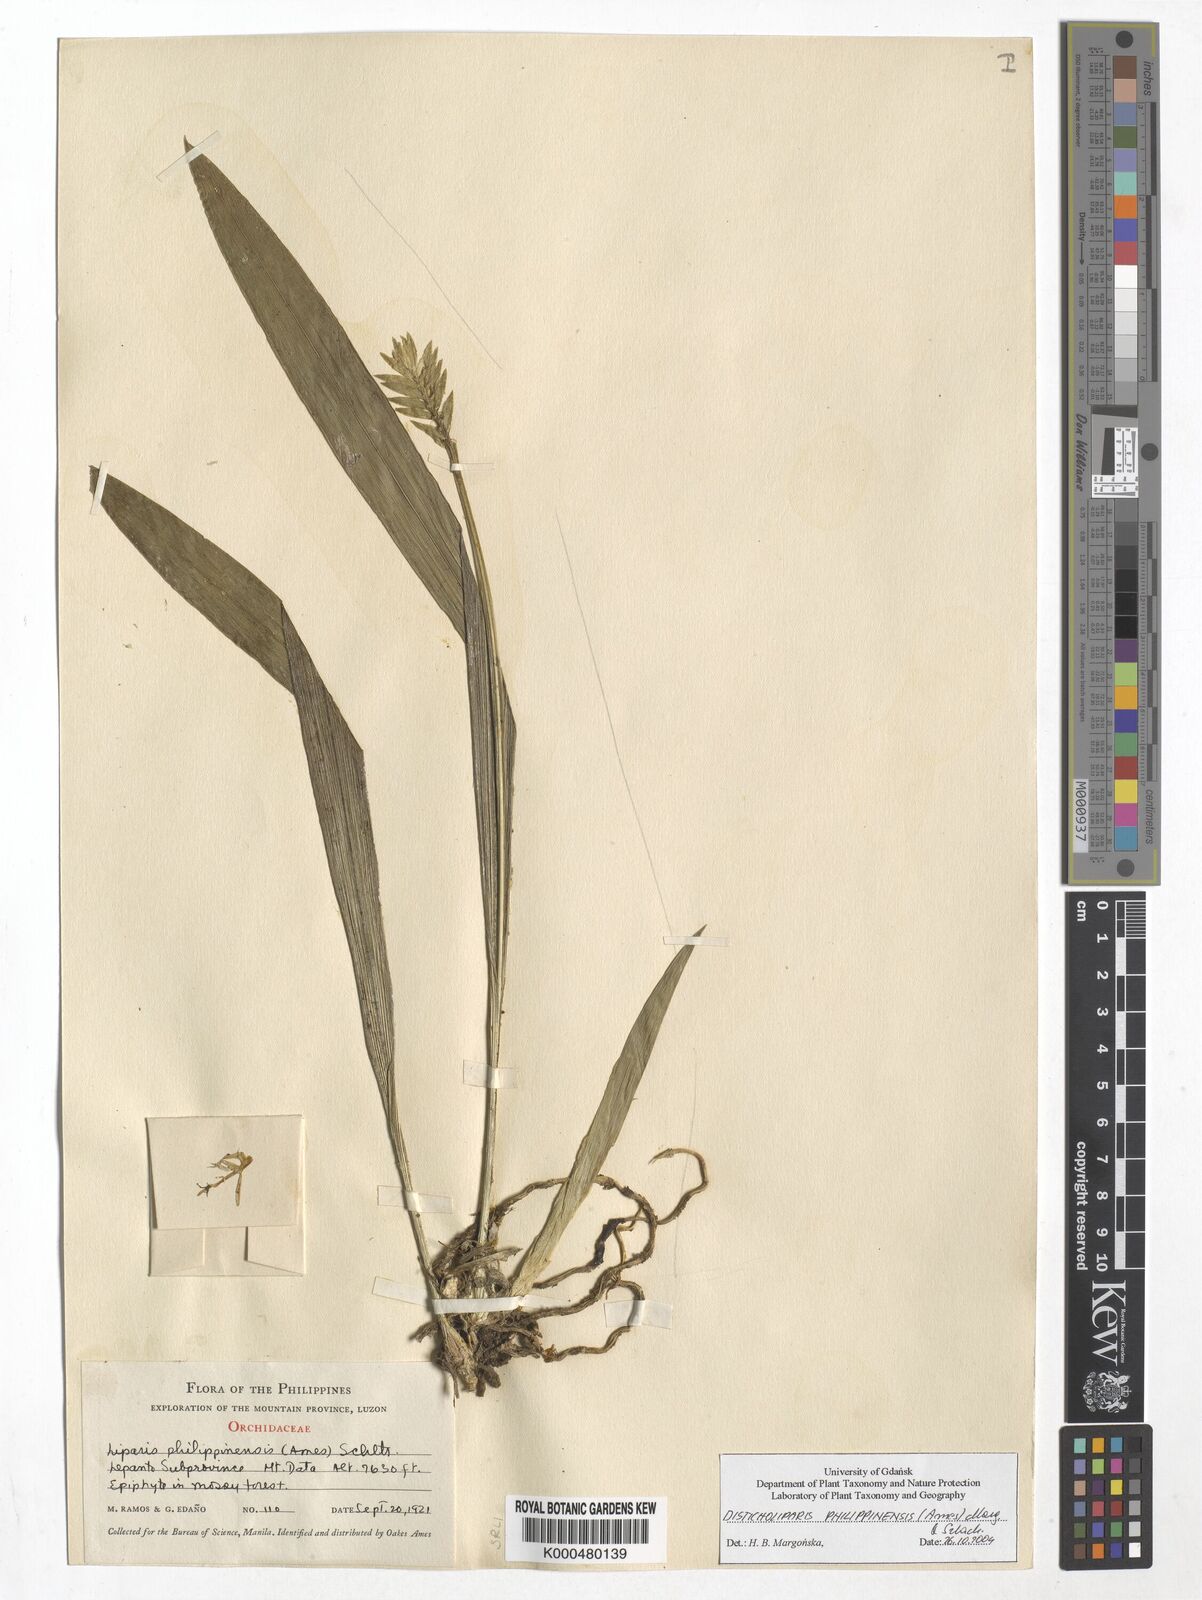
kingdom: Plantae
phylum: Tracheophyta
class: Liliopsida
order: Asparagales
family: Orchidaceae
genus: Liparis
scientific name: Liparis philippinensis
